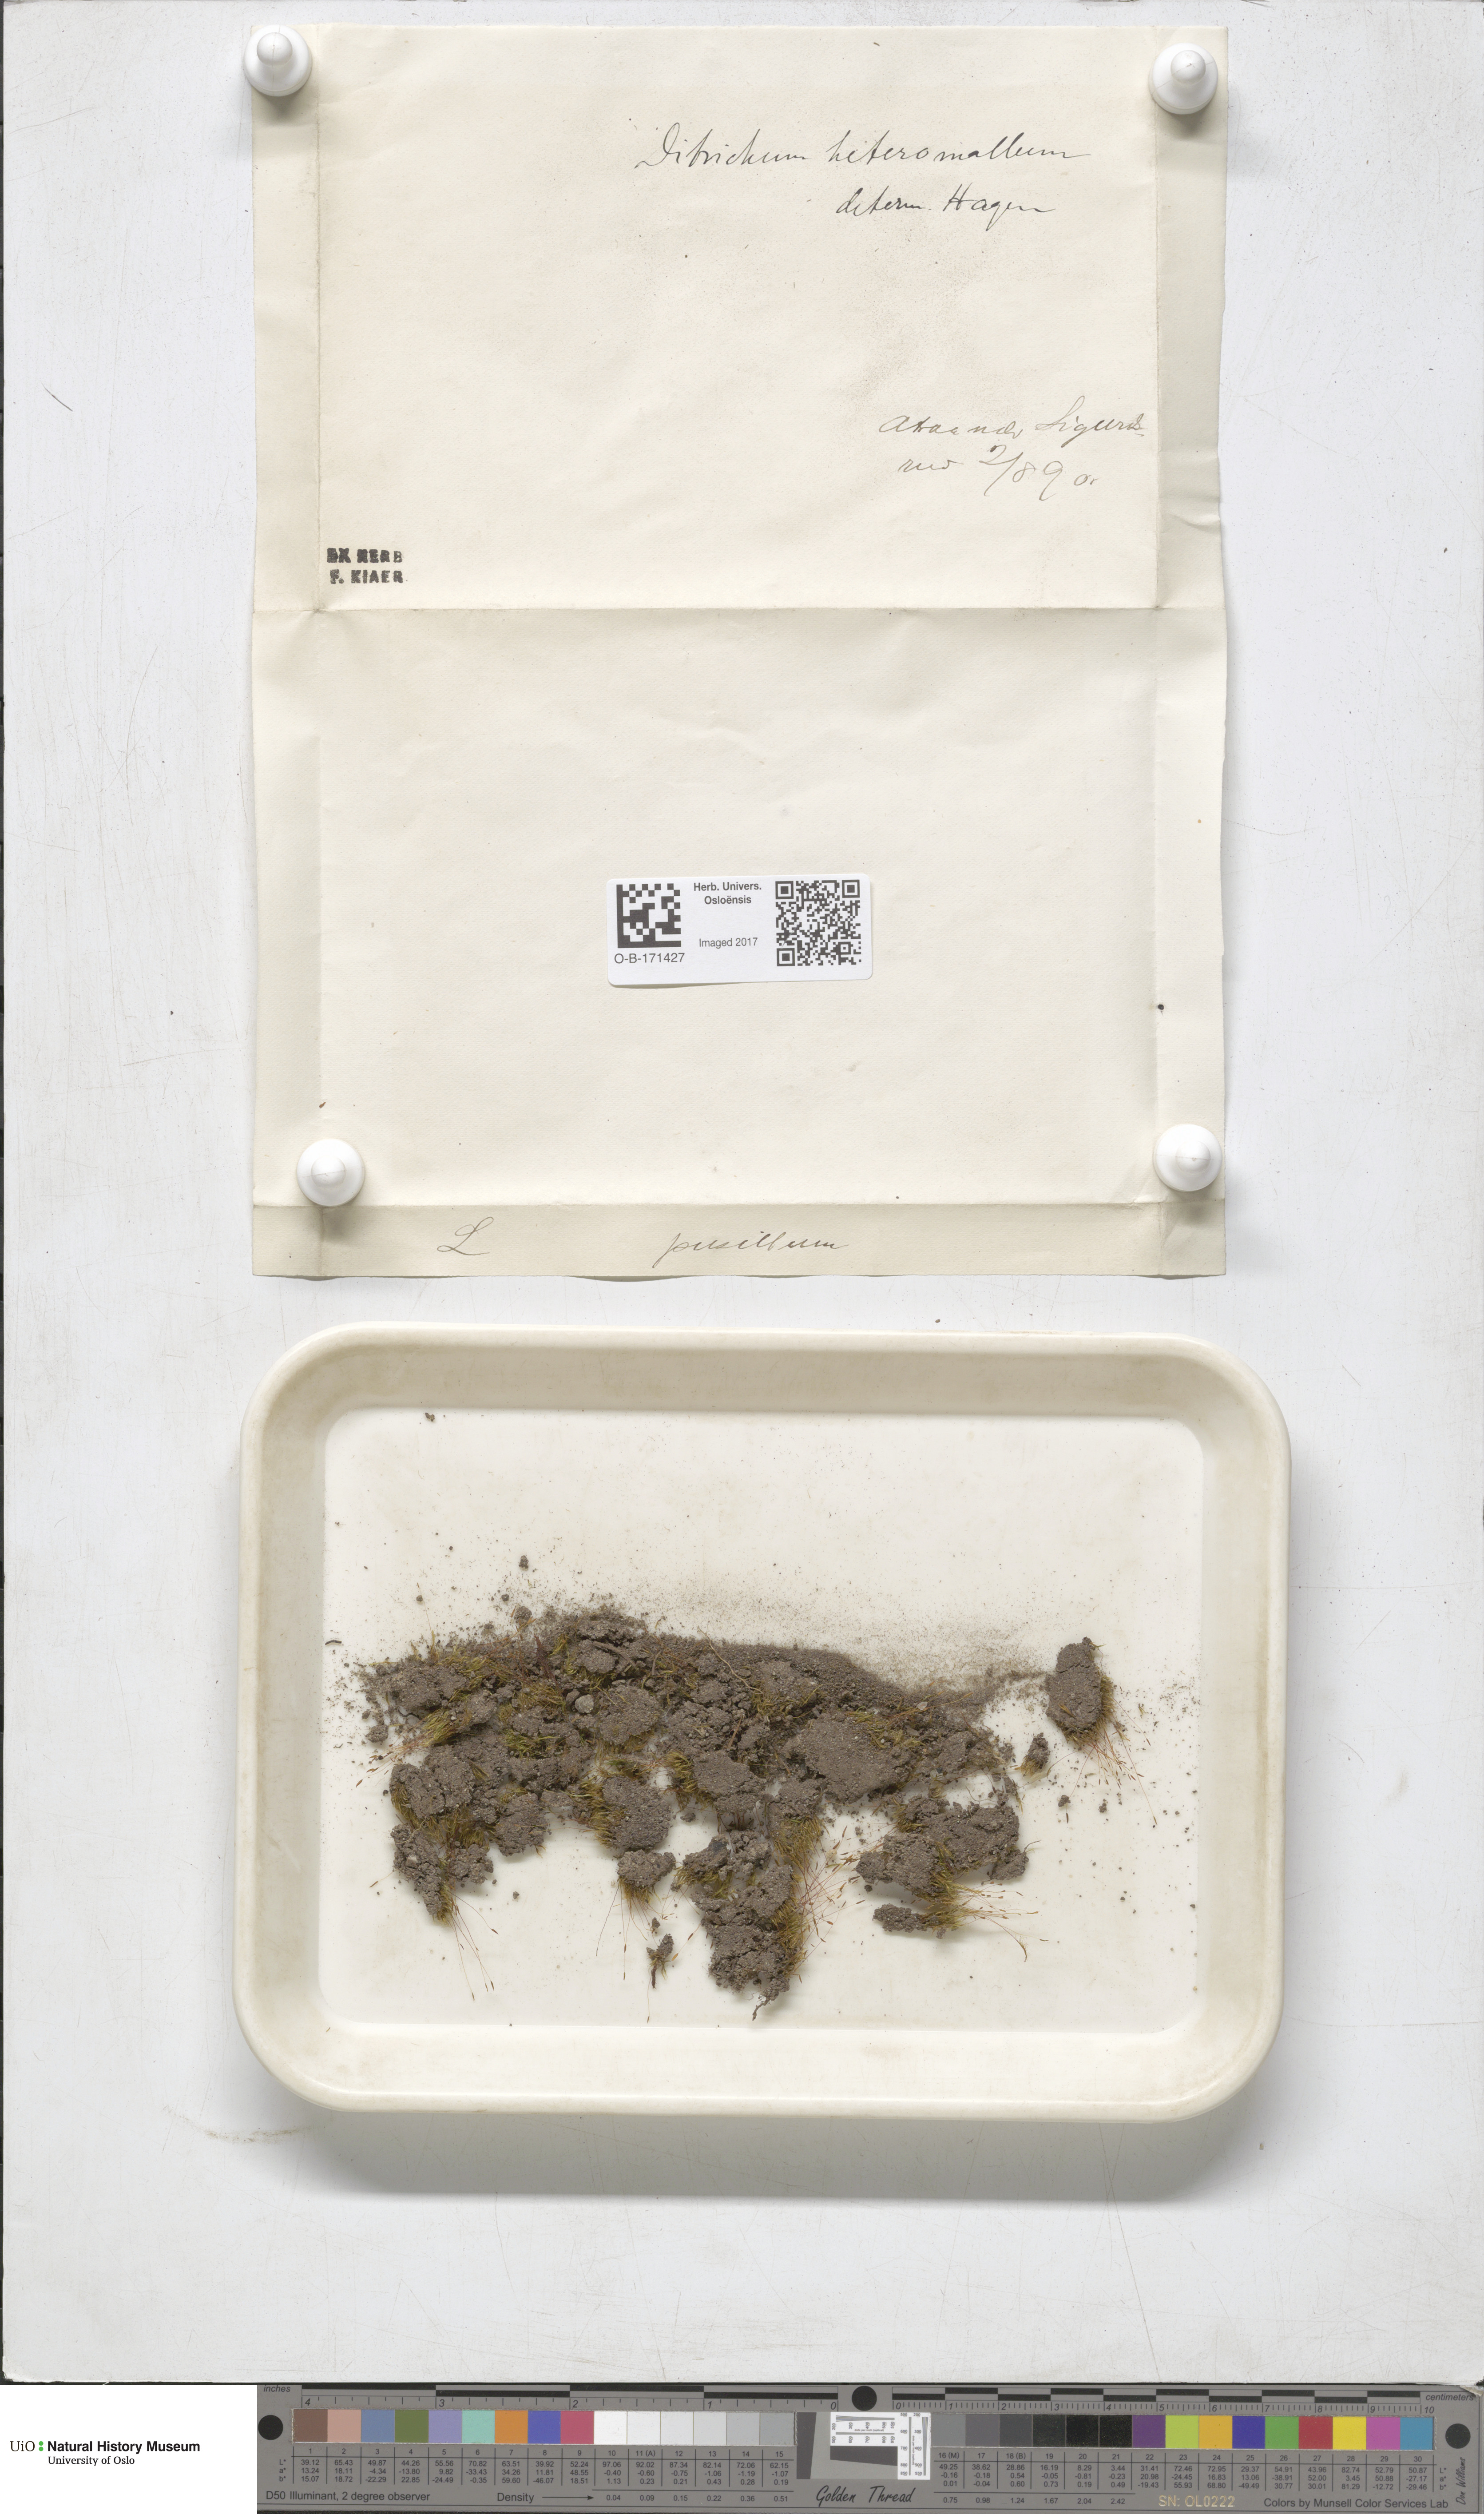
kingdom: Plantae
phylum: Bryophyta
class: Bryopsida
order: Dicranales
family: Ditrichaceae
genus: Ditrichum
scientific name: Ditrichum heteromallum
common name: Curve-leaved ditrichum
